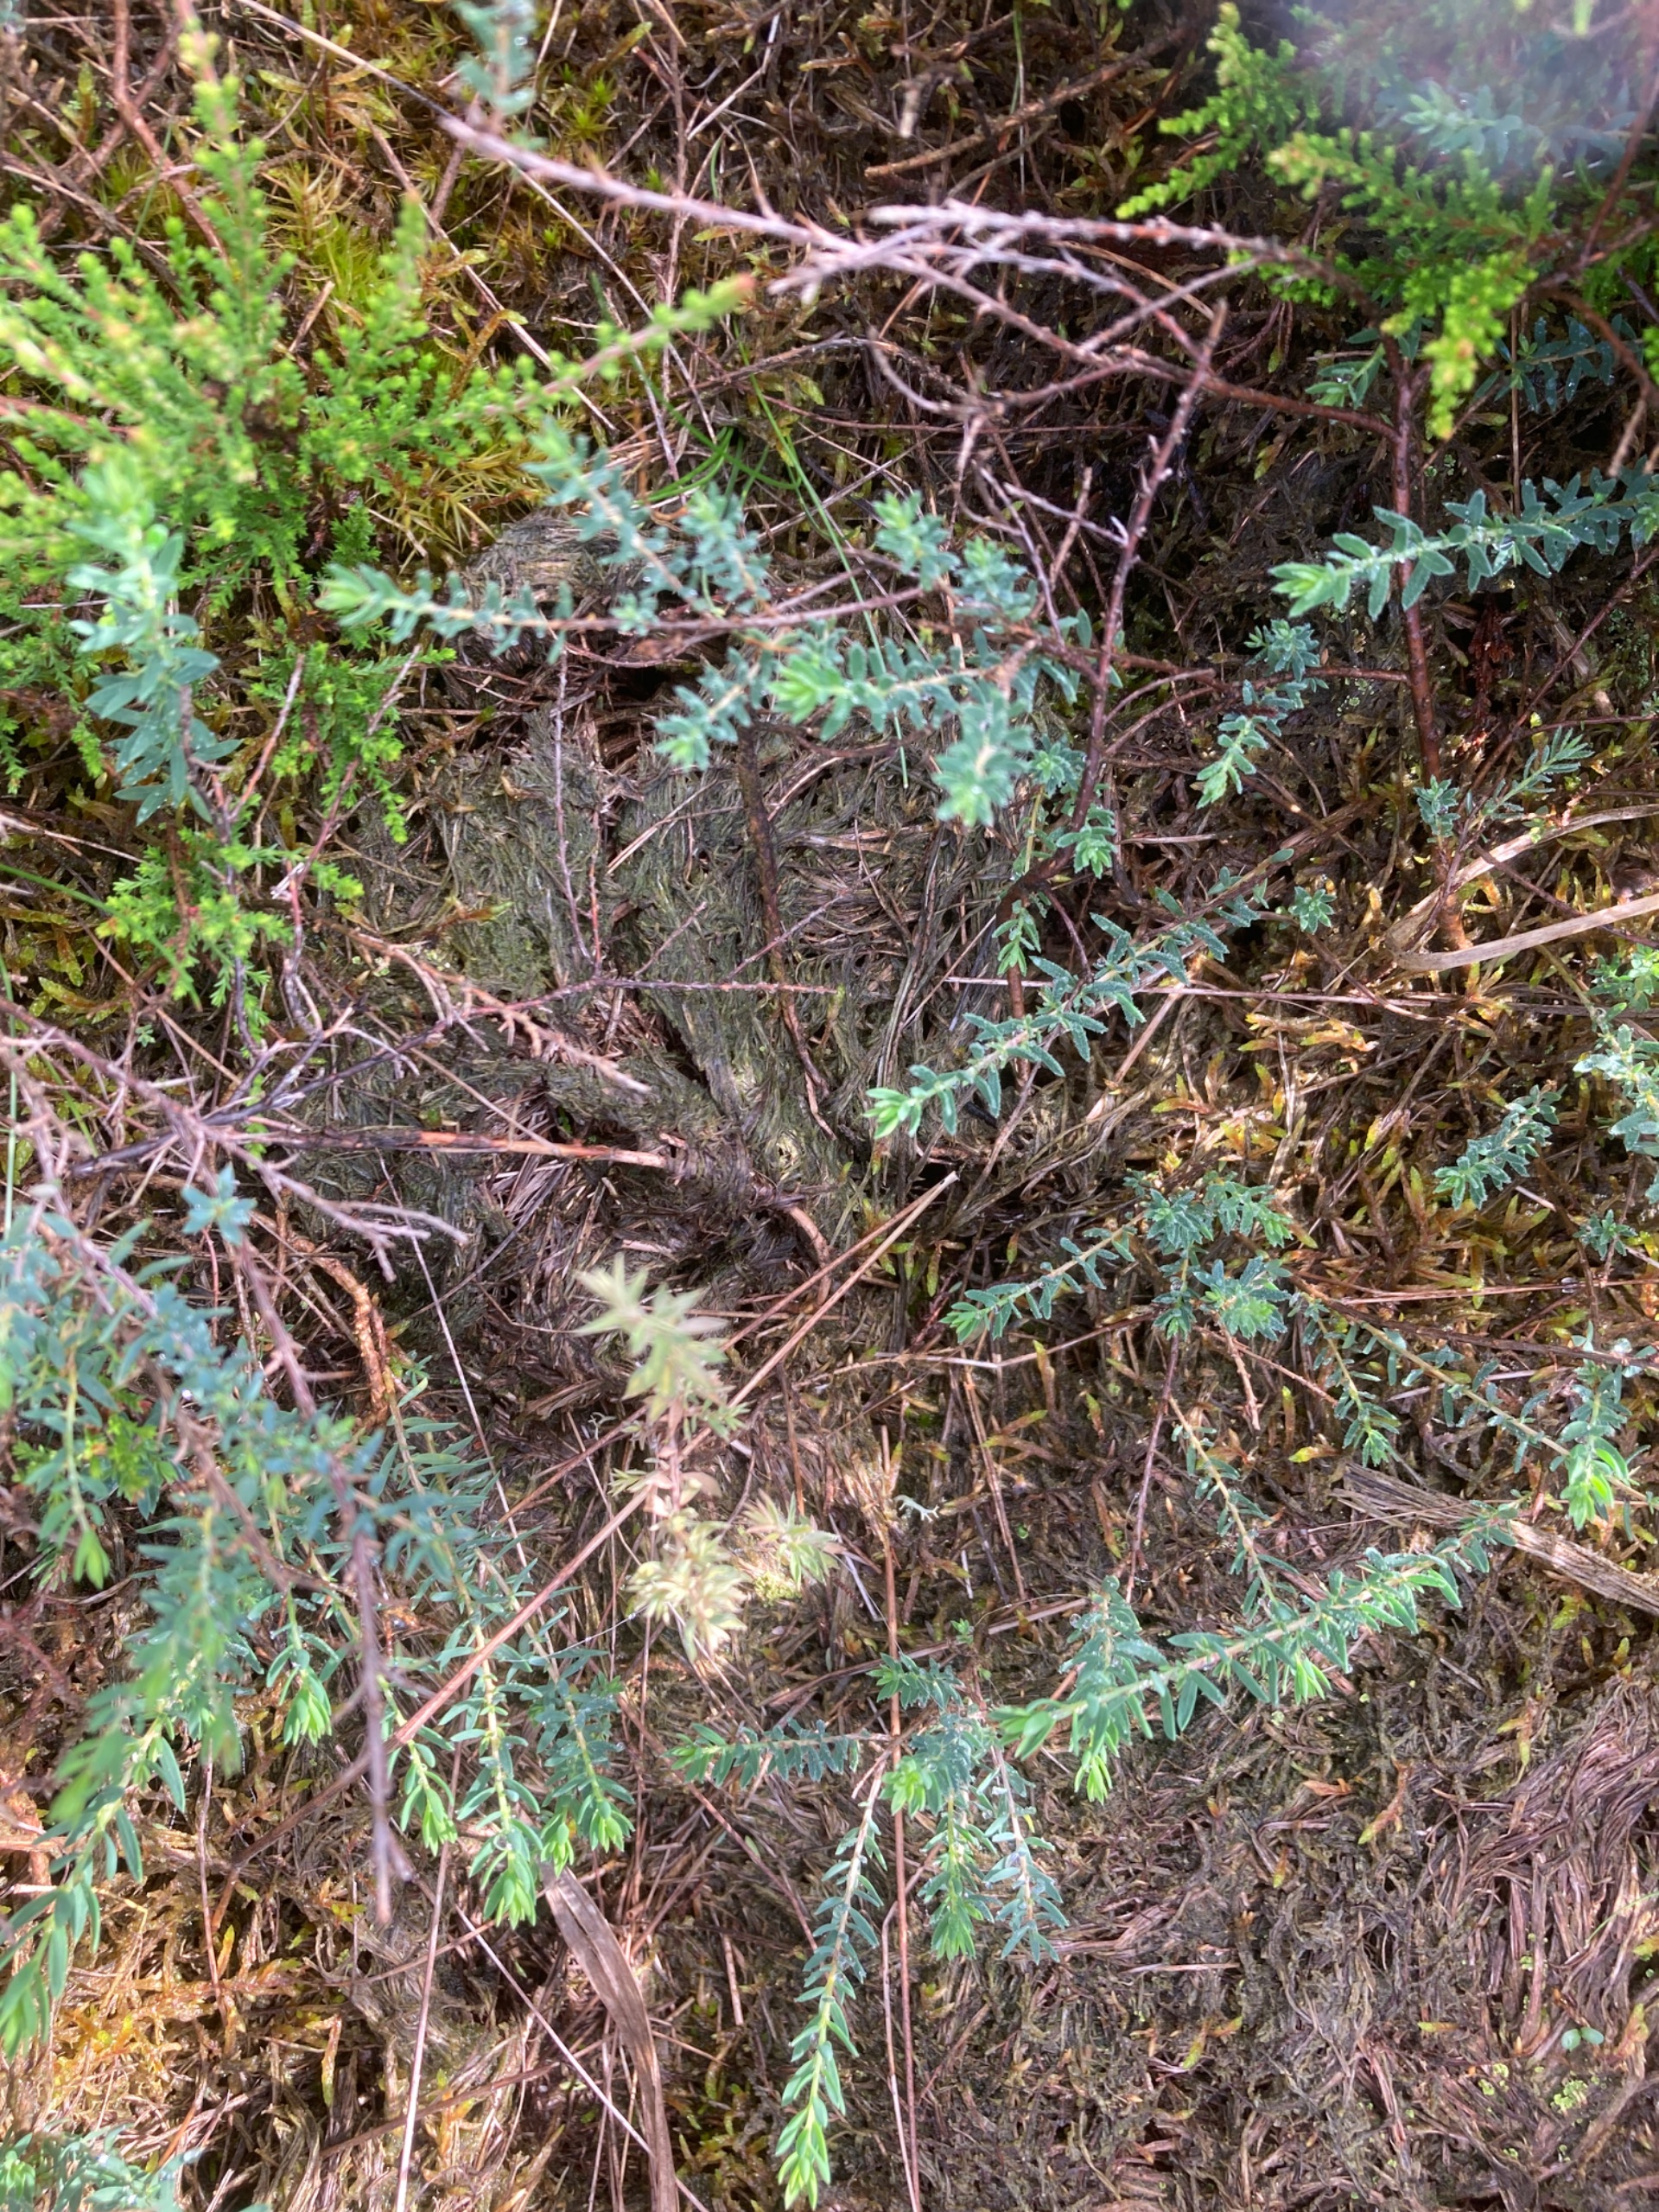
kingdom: Plantae
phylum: Tracheophyta
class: Magnoliopsida
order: Fabales
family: Fabaceae
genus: Genista
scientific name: Genista anglica
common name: Engelsk visse
